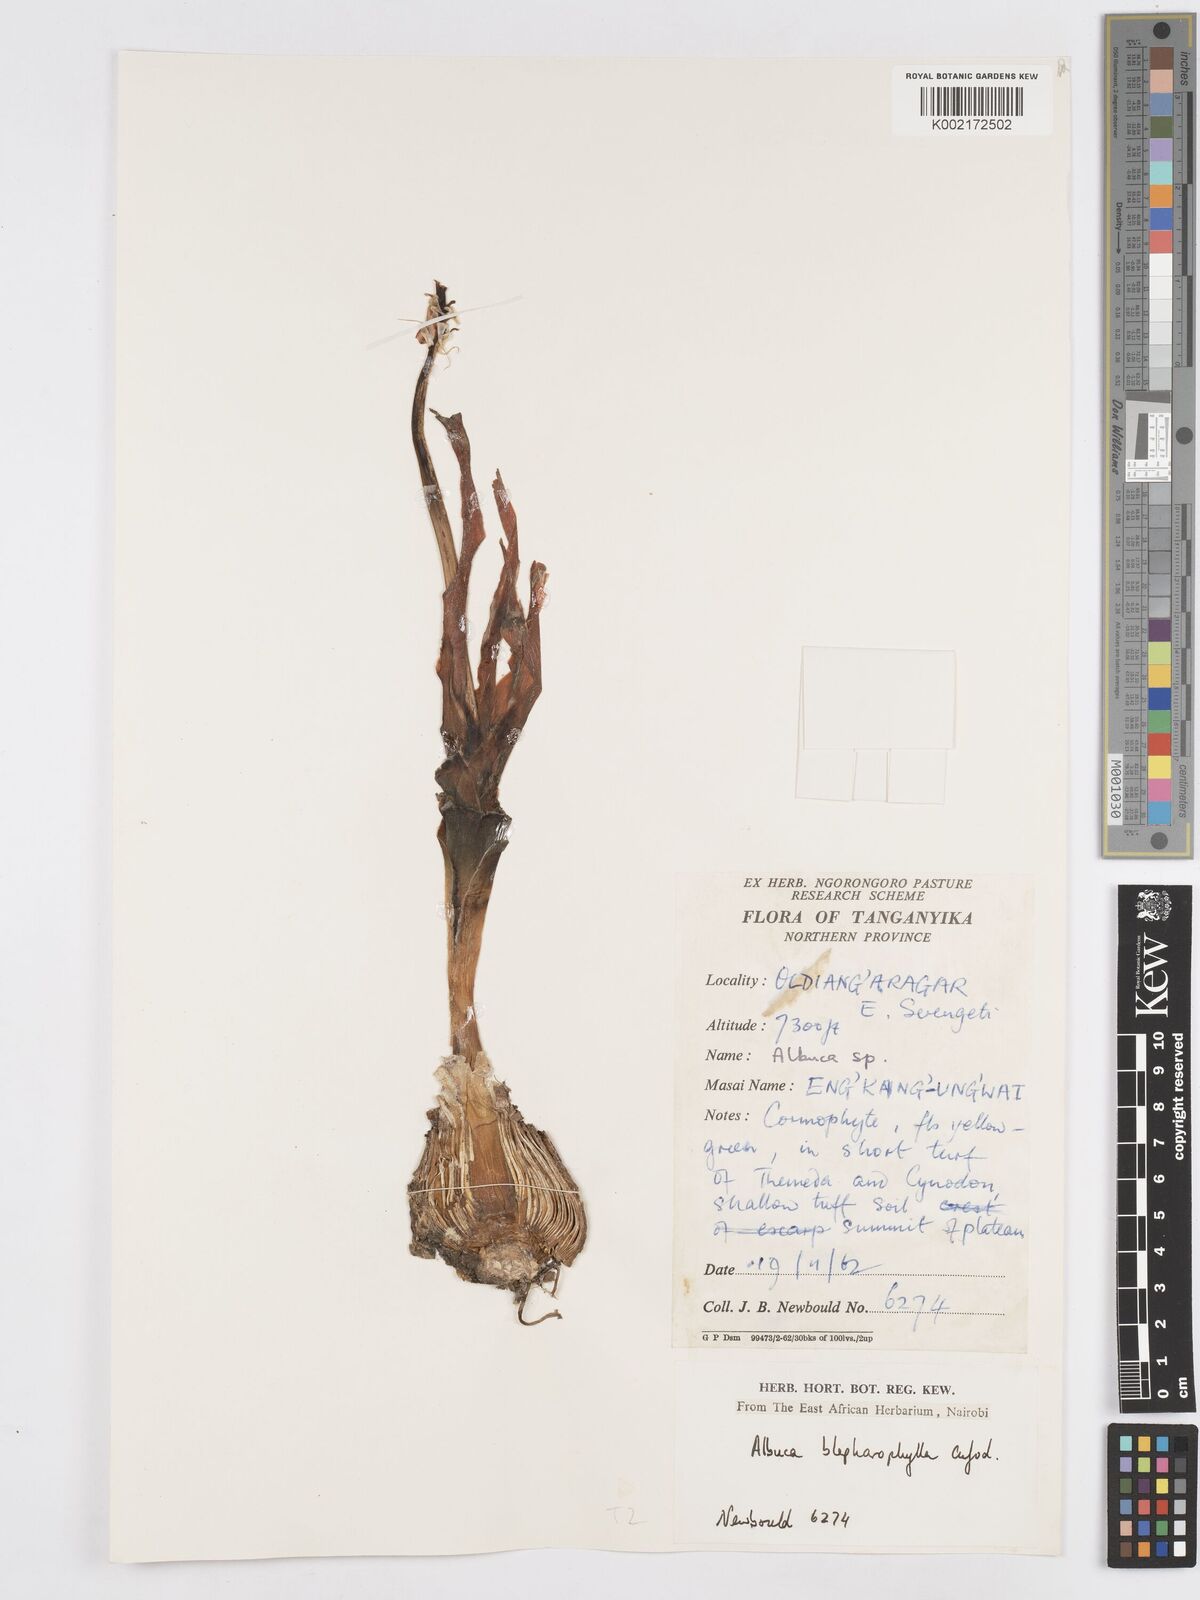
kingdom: Plantae
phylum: Tracheophyta
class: Liliopsida
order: Asparagales
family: Asparagaceae
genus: Albuca
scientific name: Albuca abyssinica
